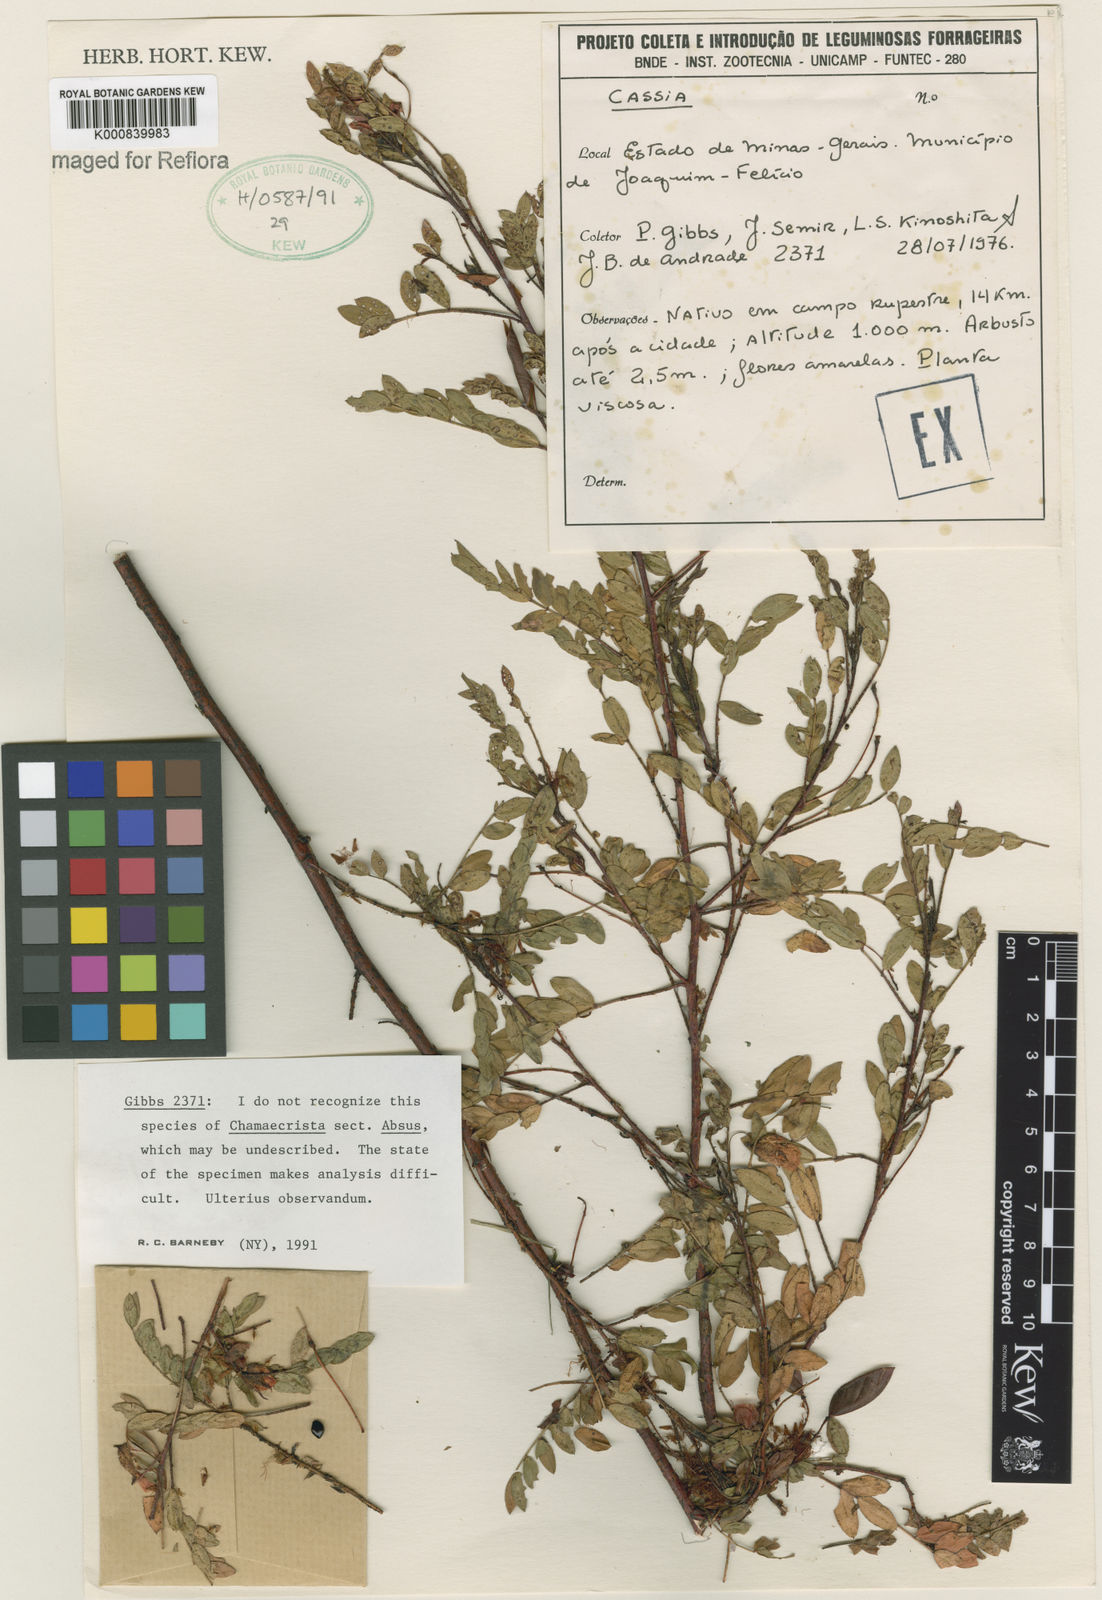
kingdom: Plantae
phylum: Tracheophyta
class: Magnoliopsida
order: Fabales
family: Fabaceae
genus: Chamaecrista
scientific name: Chamaecrista
